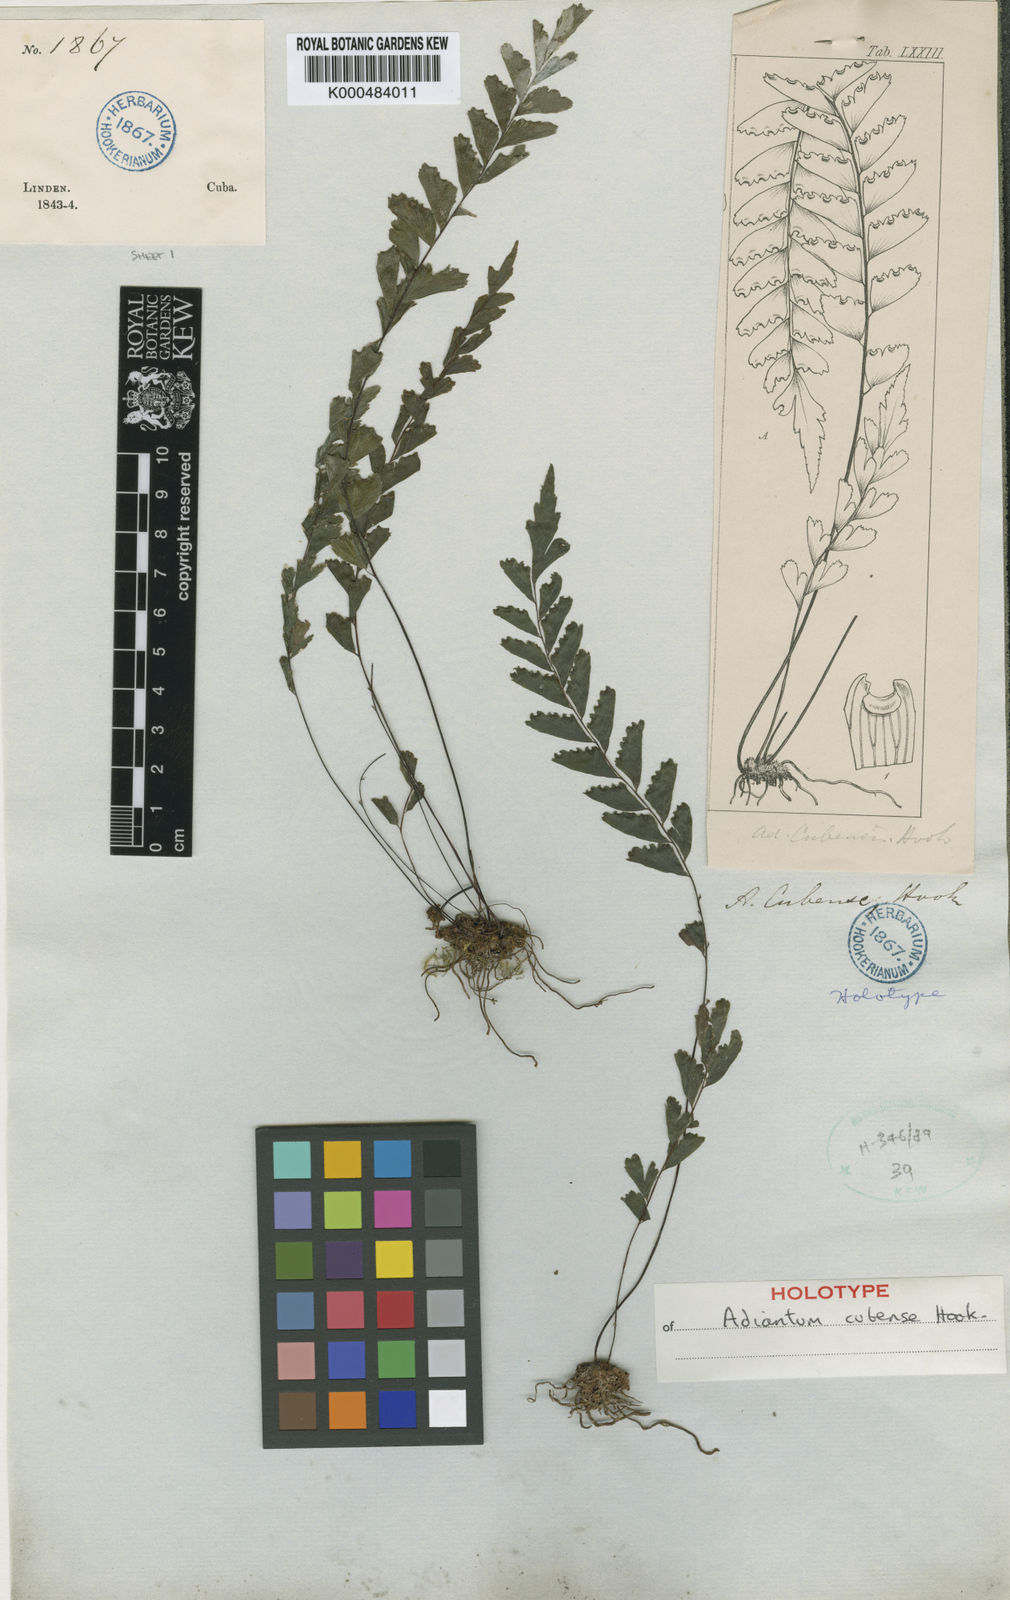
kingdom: Plantae
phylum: Tracheophyta
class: Polypodiopsida
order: Polypodiales
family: Pteridaceae
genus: Adiantum
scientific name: Adiantum melanoleucum
